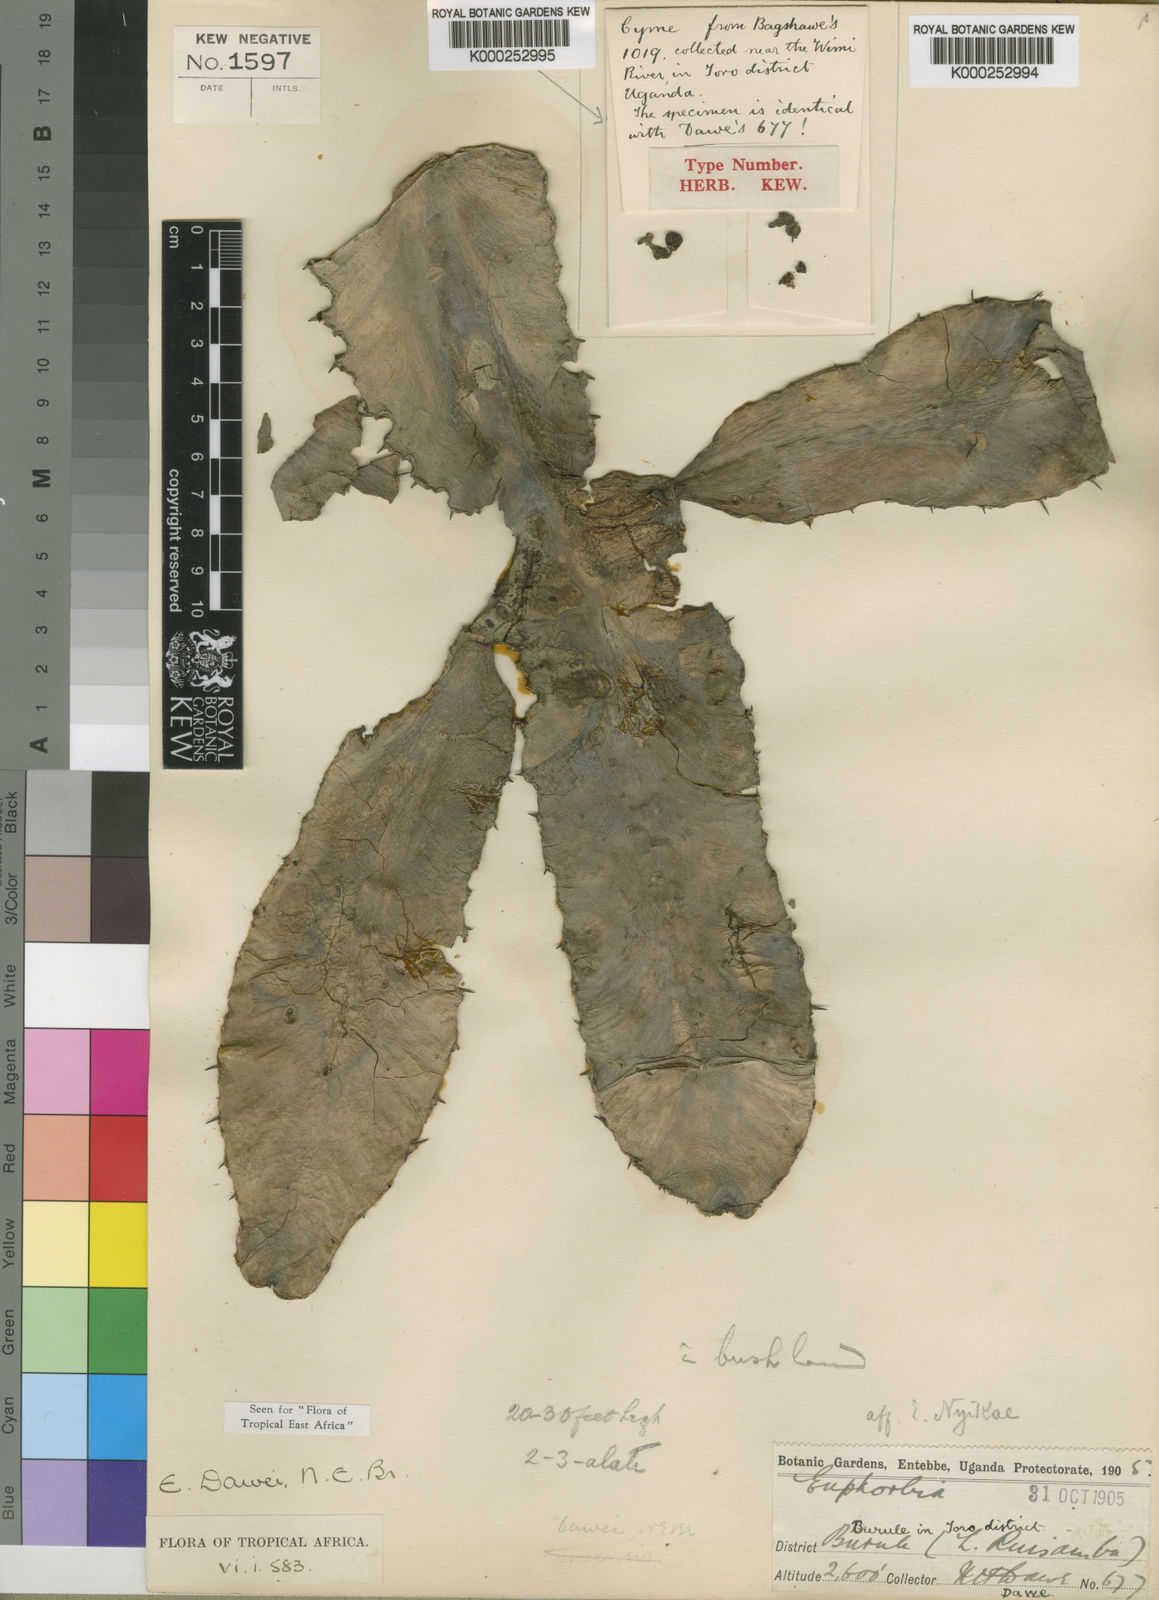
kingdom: Plantae
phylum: Tracheophyta
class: Magnoliopsida
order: Malpighiales
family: Euphorbiaceae
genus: Euphorbia
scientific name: Euphorbia dawei
